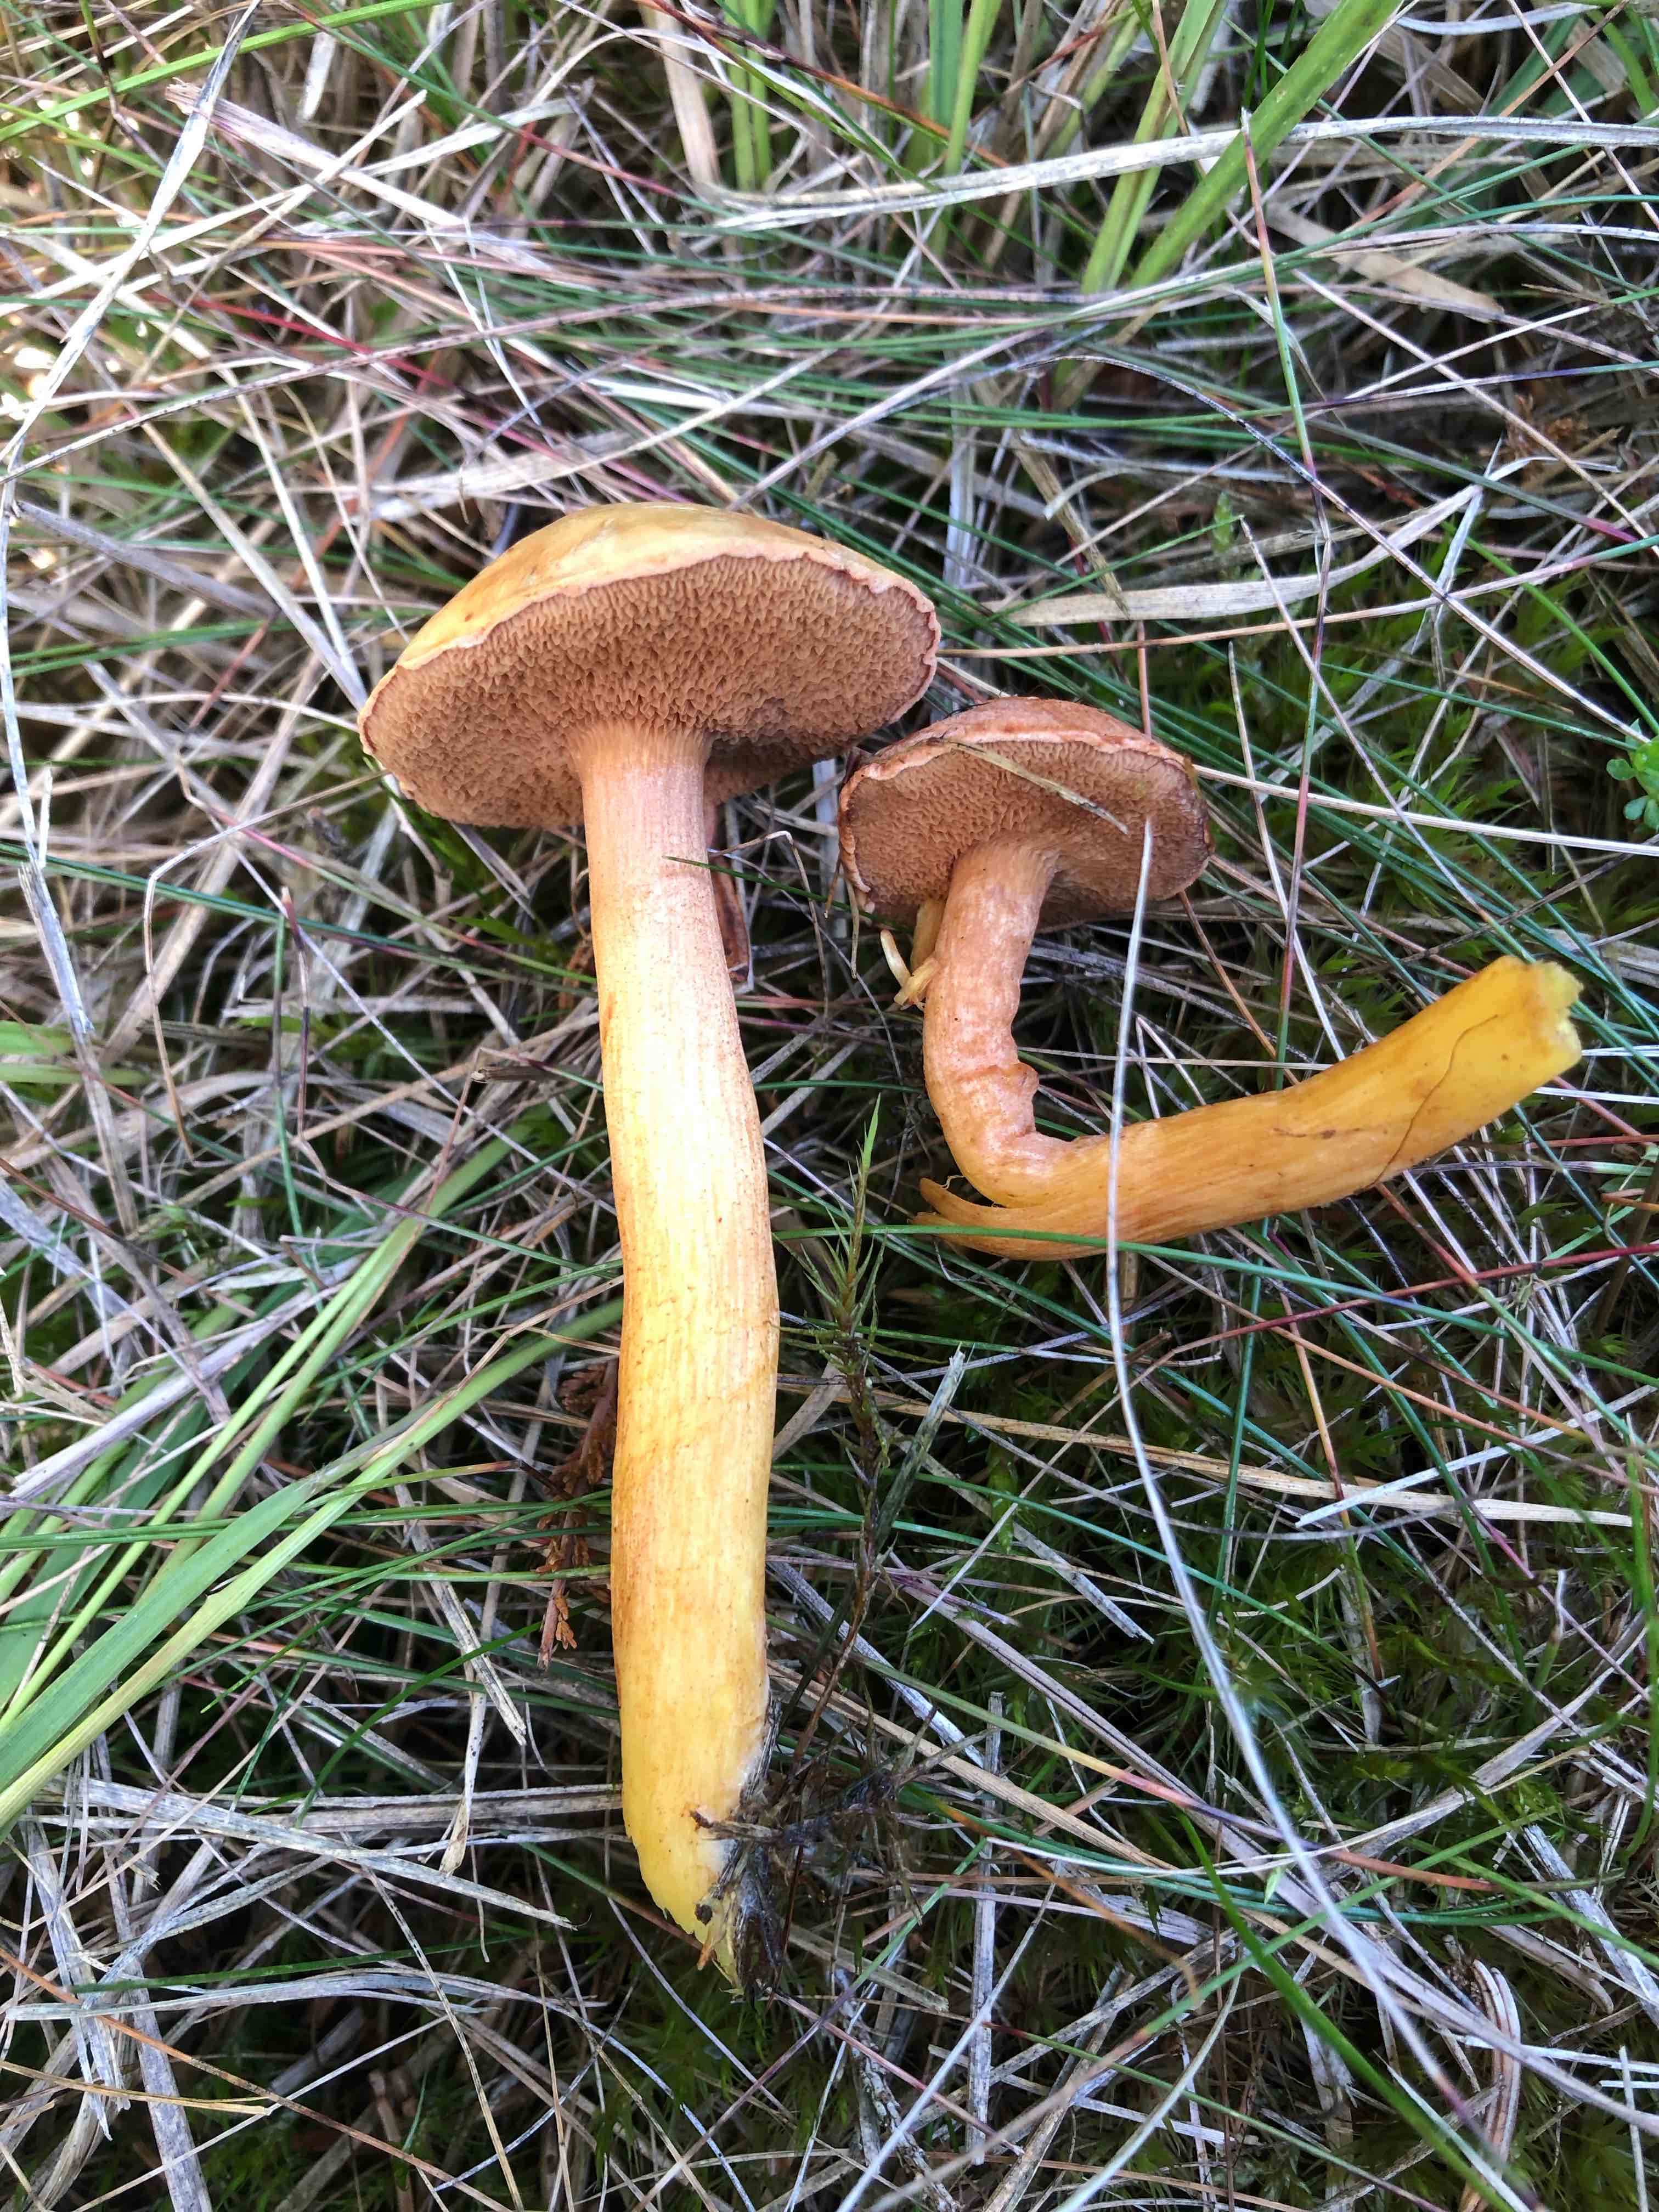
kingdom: Fungi
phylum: Basidiomycota
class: Agaricomycetes
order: Boletales
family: Boletaceae
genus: Chalciporus
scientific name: Chalciporus piperatus
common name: peberrørhat
